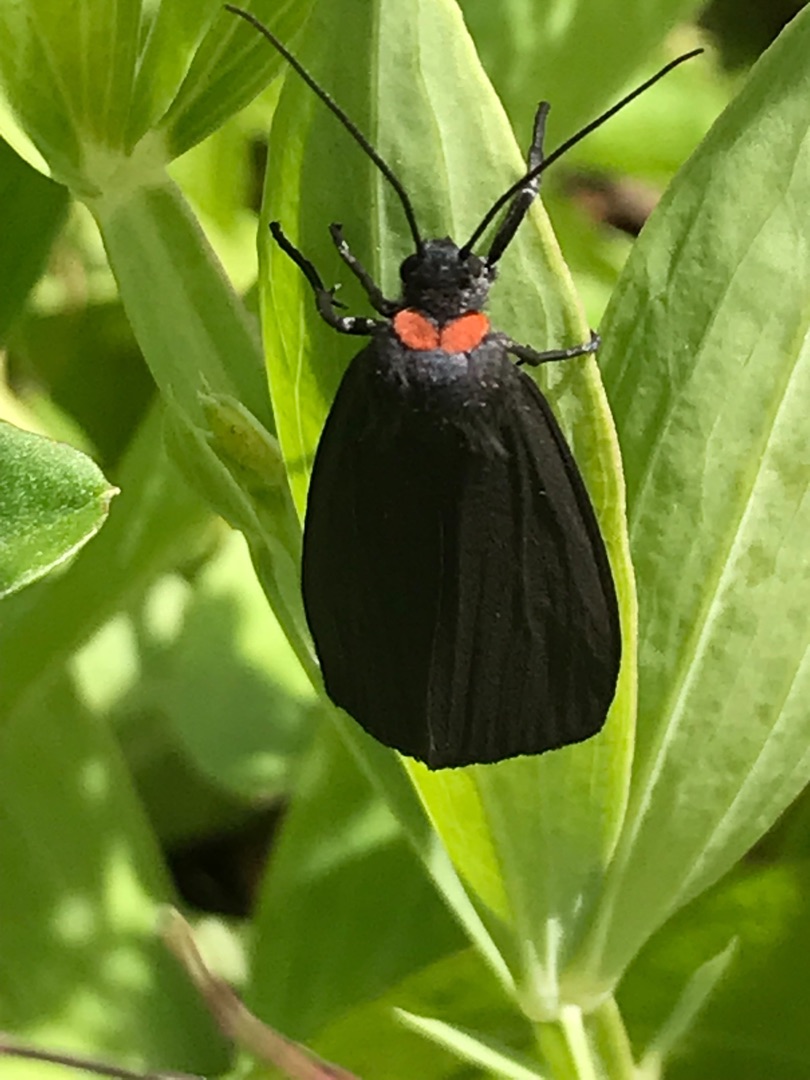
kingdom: Animalia
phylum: Arthropoda
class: Insecta
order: Lepidoptera
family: Erebidae
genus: Atolmis
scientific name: Atolmis rubricollis
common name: Blodnakke
